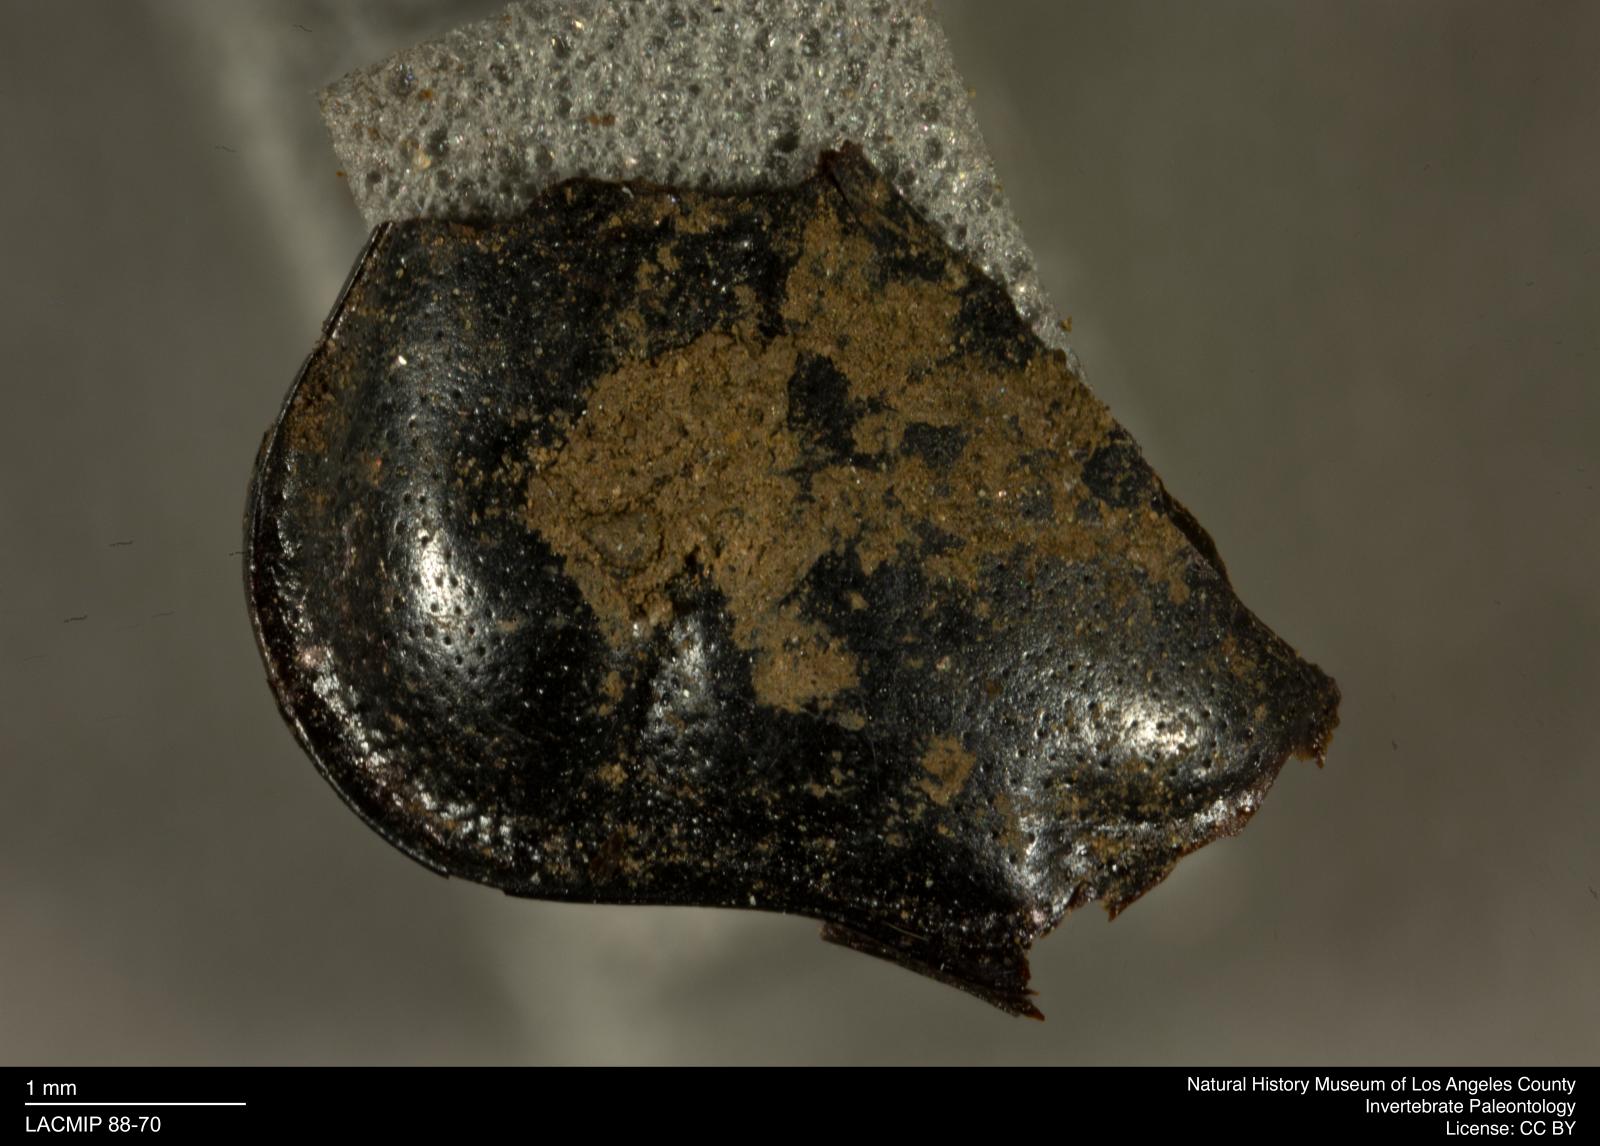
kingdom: Animalia
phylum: Arthropoda
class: Insecta
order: Coleoptera
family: Staphylinidae
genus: Nicrophorus
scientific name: Nicrophorus marginatus
